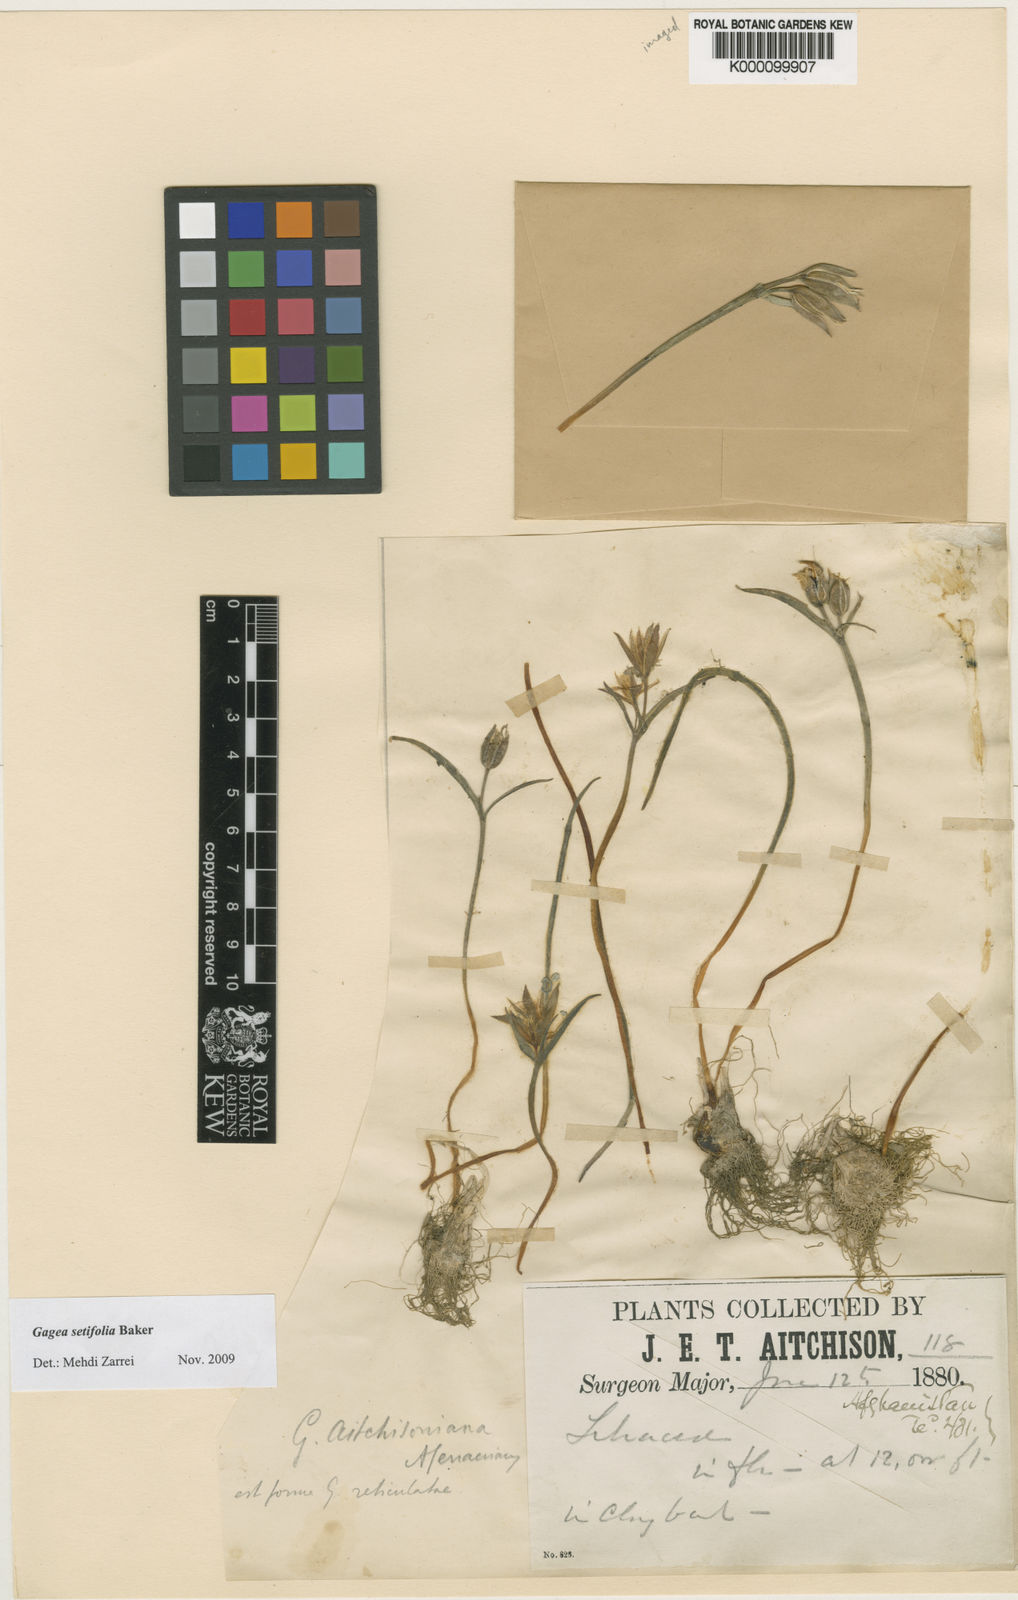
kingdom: Plantae
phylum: Tracheophyta
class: Liliopsida
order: Liliales
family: Liliaceae
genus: Gagea
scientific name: Gagea setifolia
